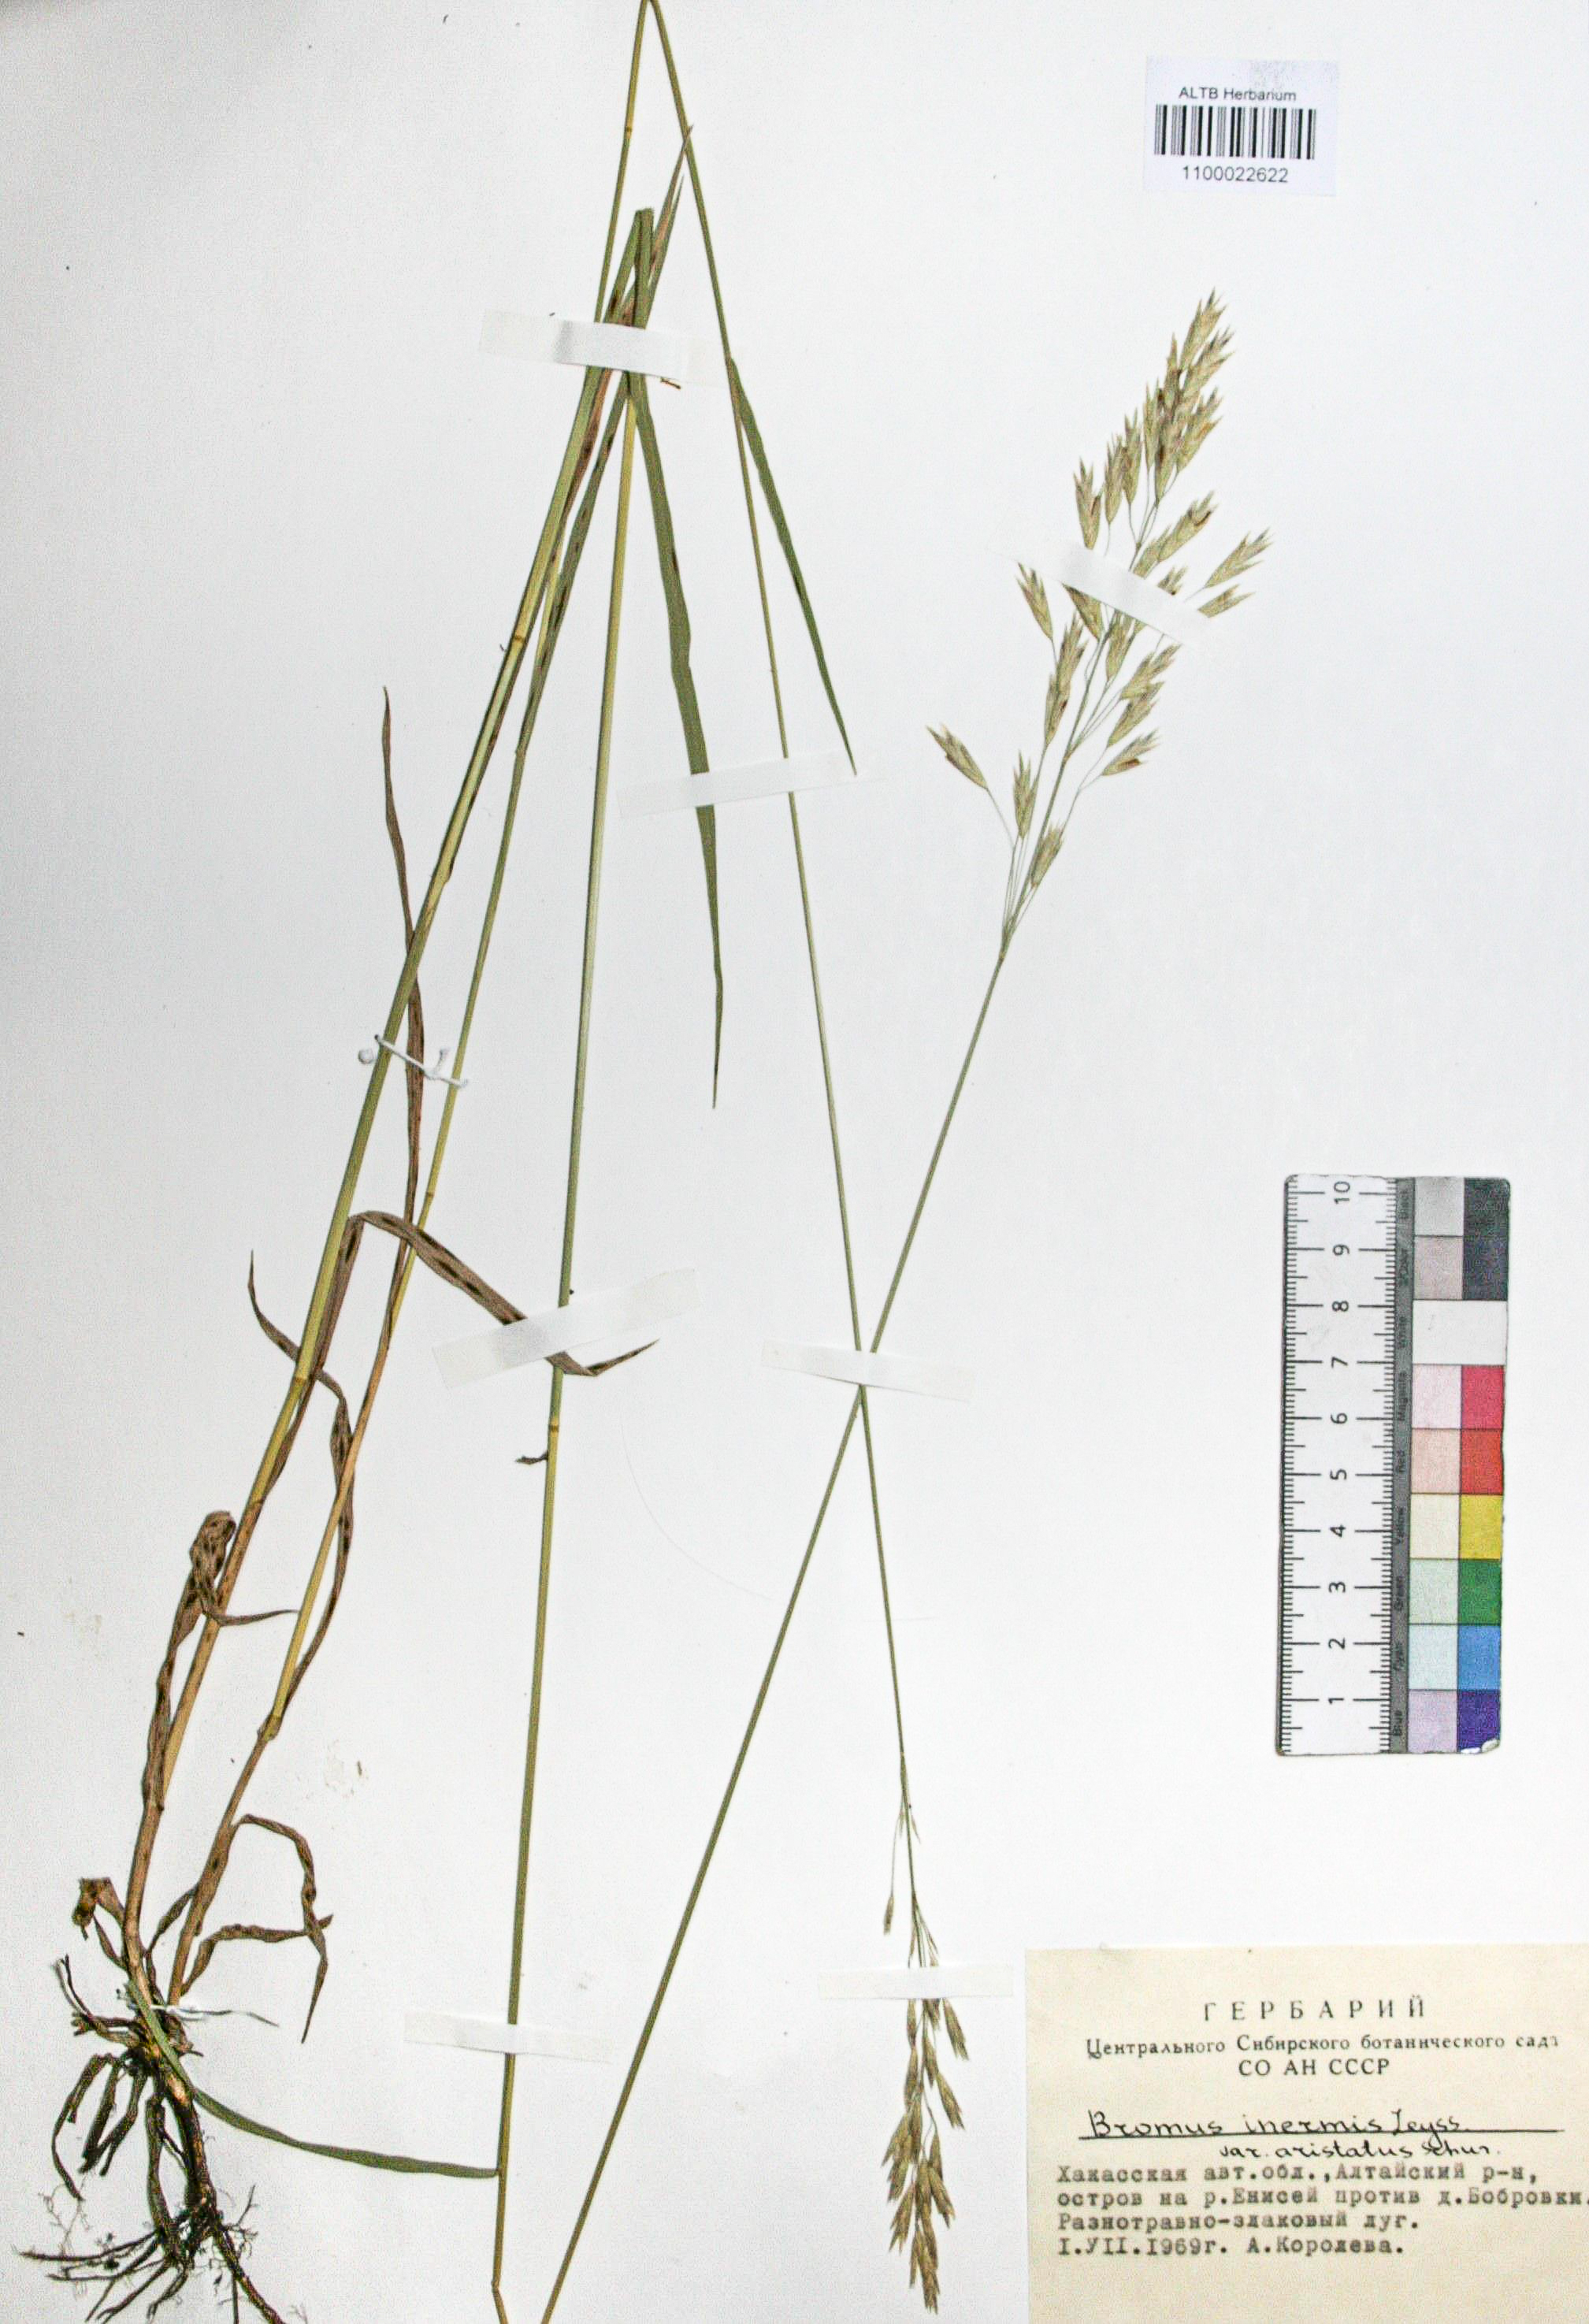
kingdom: Plantae
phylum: Tracheophyta
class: Liliopsida
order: Poales
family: Poaceae
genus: Bromus
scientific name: Bromus inermis
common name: Smooth brome
